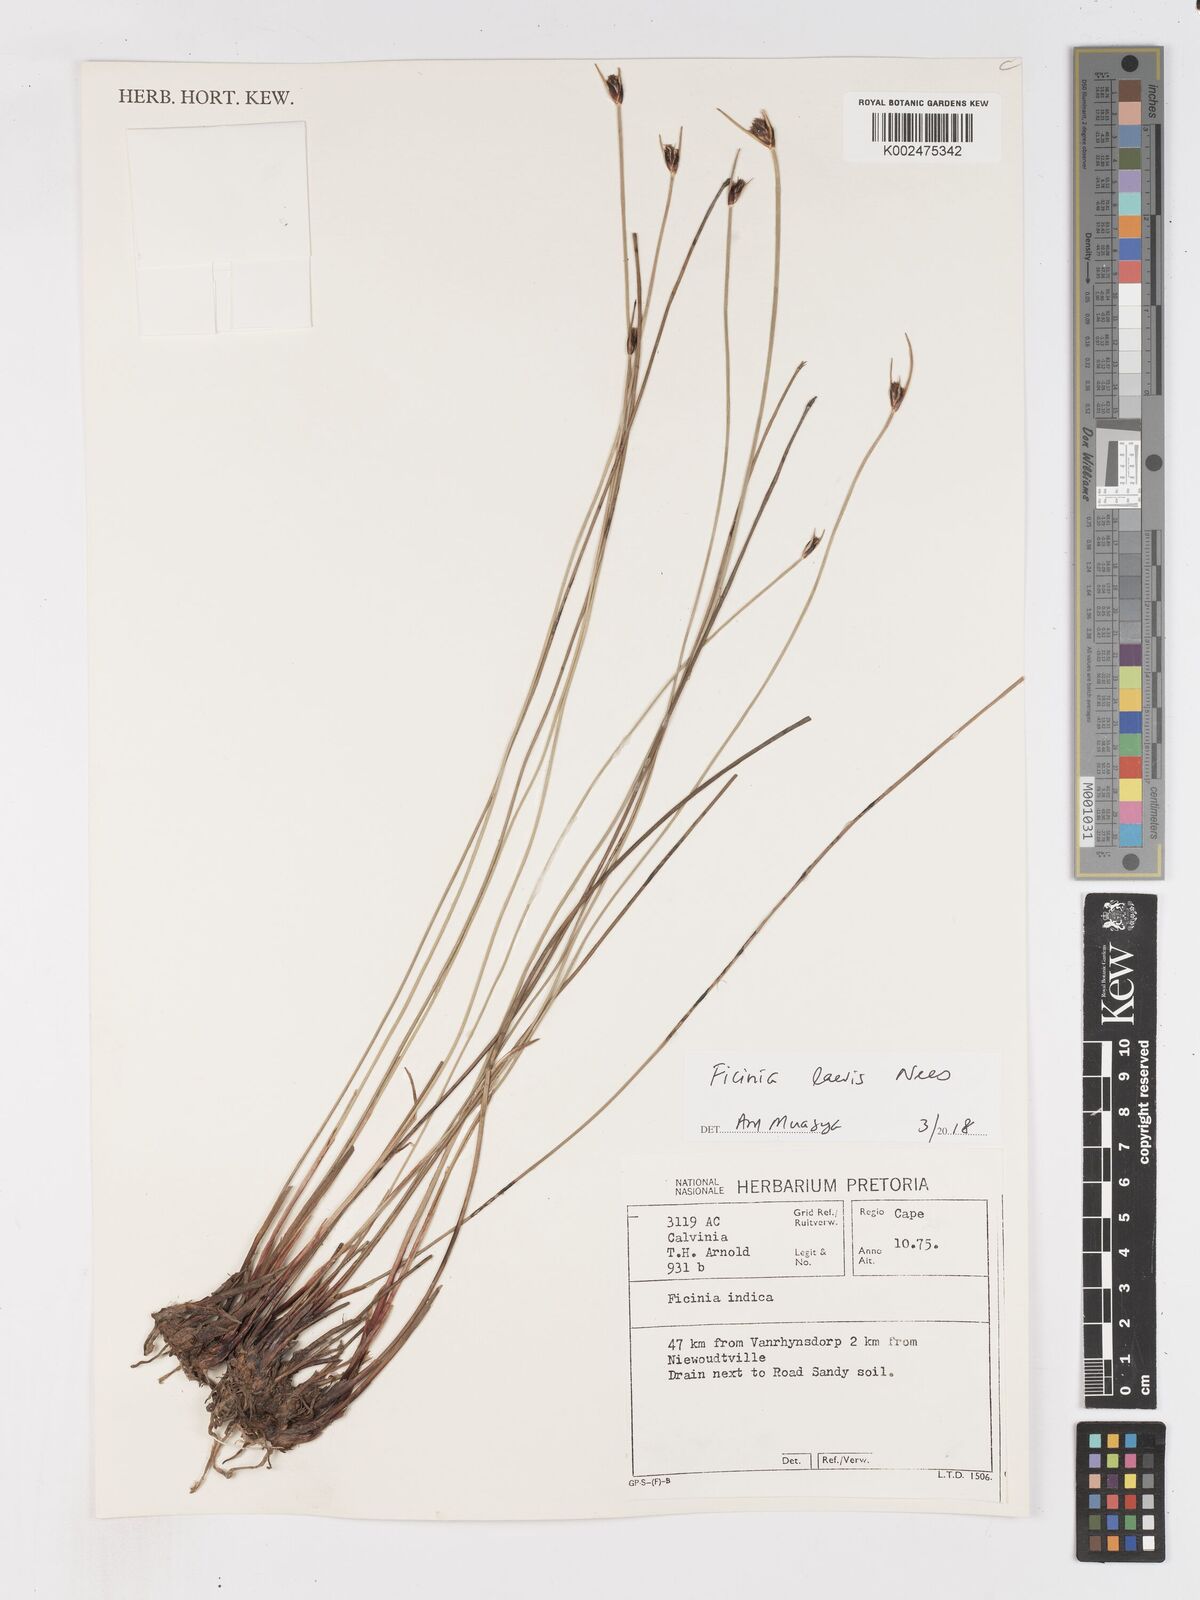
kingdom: Plantae
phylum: Tracheophyta
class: Liliopsida
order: Poales
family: Cyperaceae
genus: Ficinia
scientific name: Ficinia laevis
